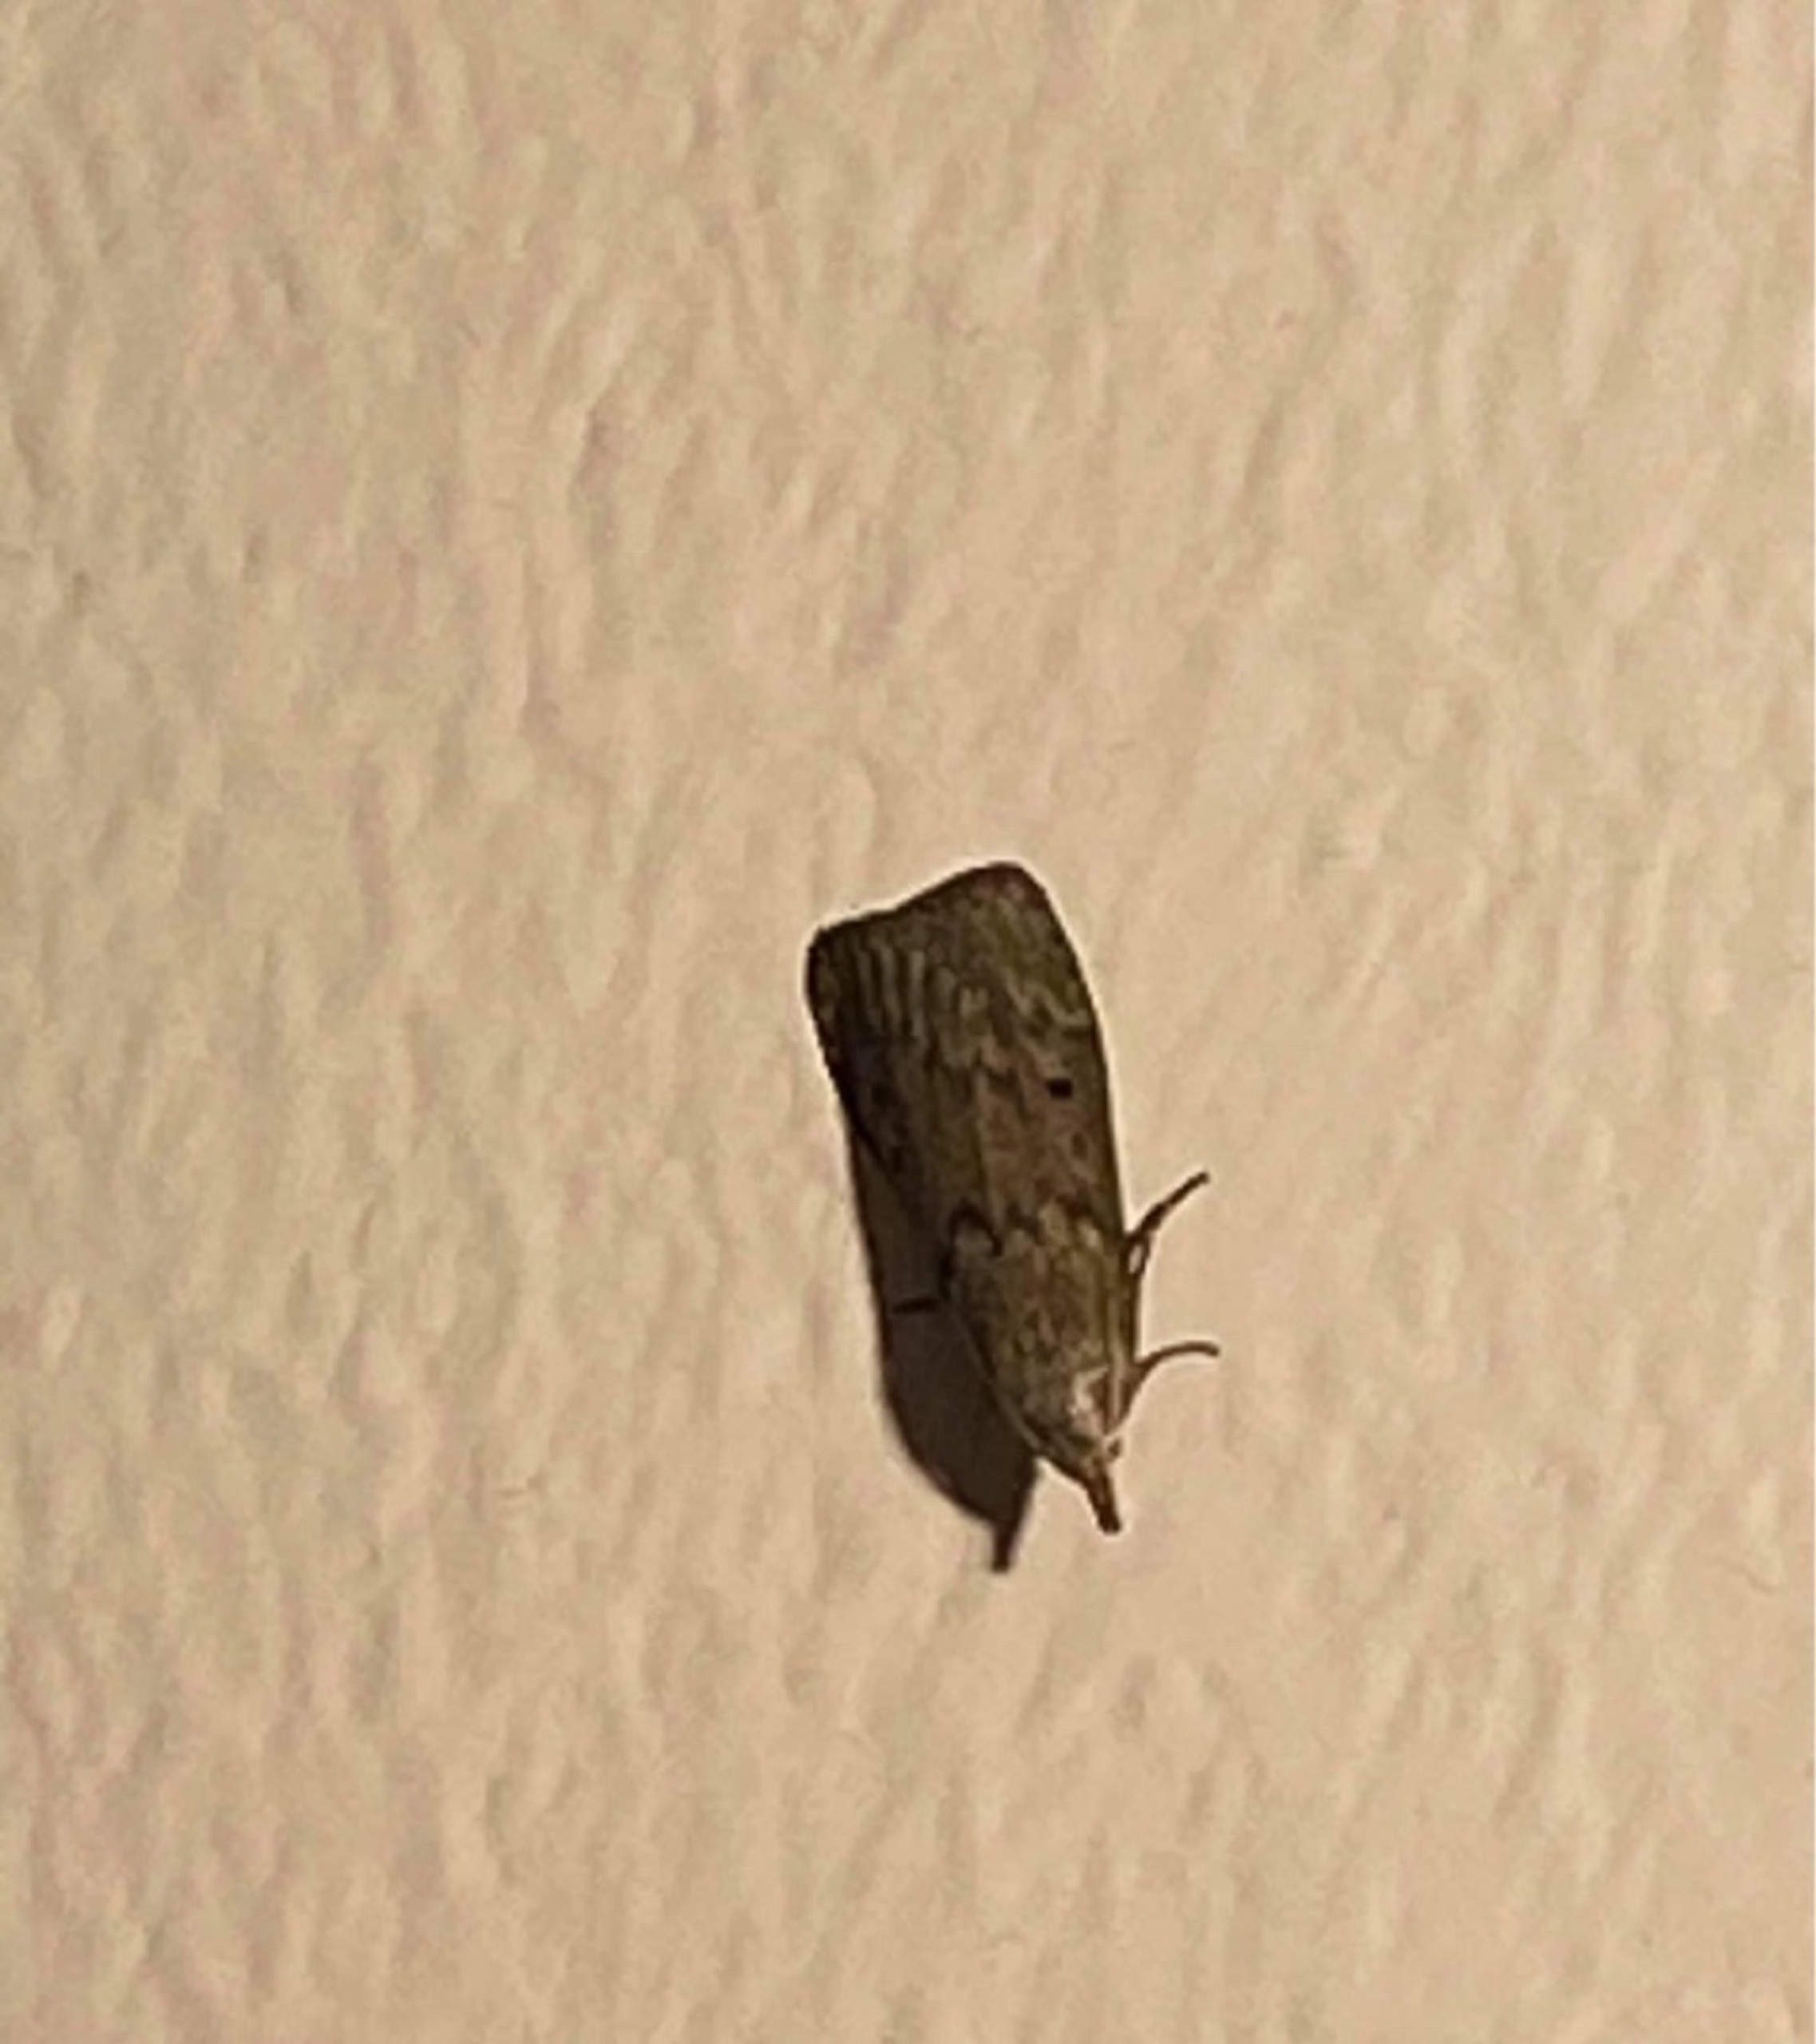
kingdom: Animalia
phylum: Arthropoda
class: Insecta
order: Lepidoptera
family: Pyralidae
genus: Aphomia
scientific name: Aphomia sociella
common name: Humlevoksmøl
